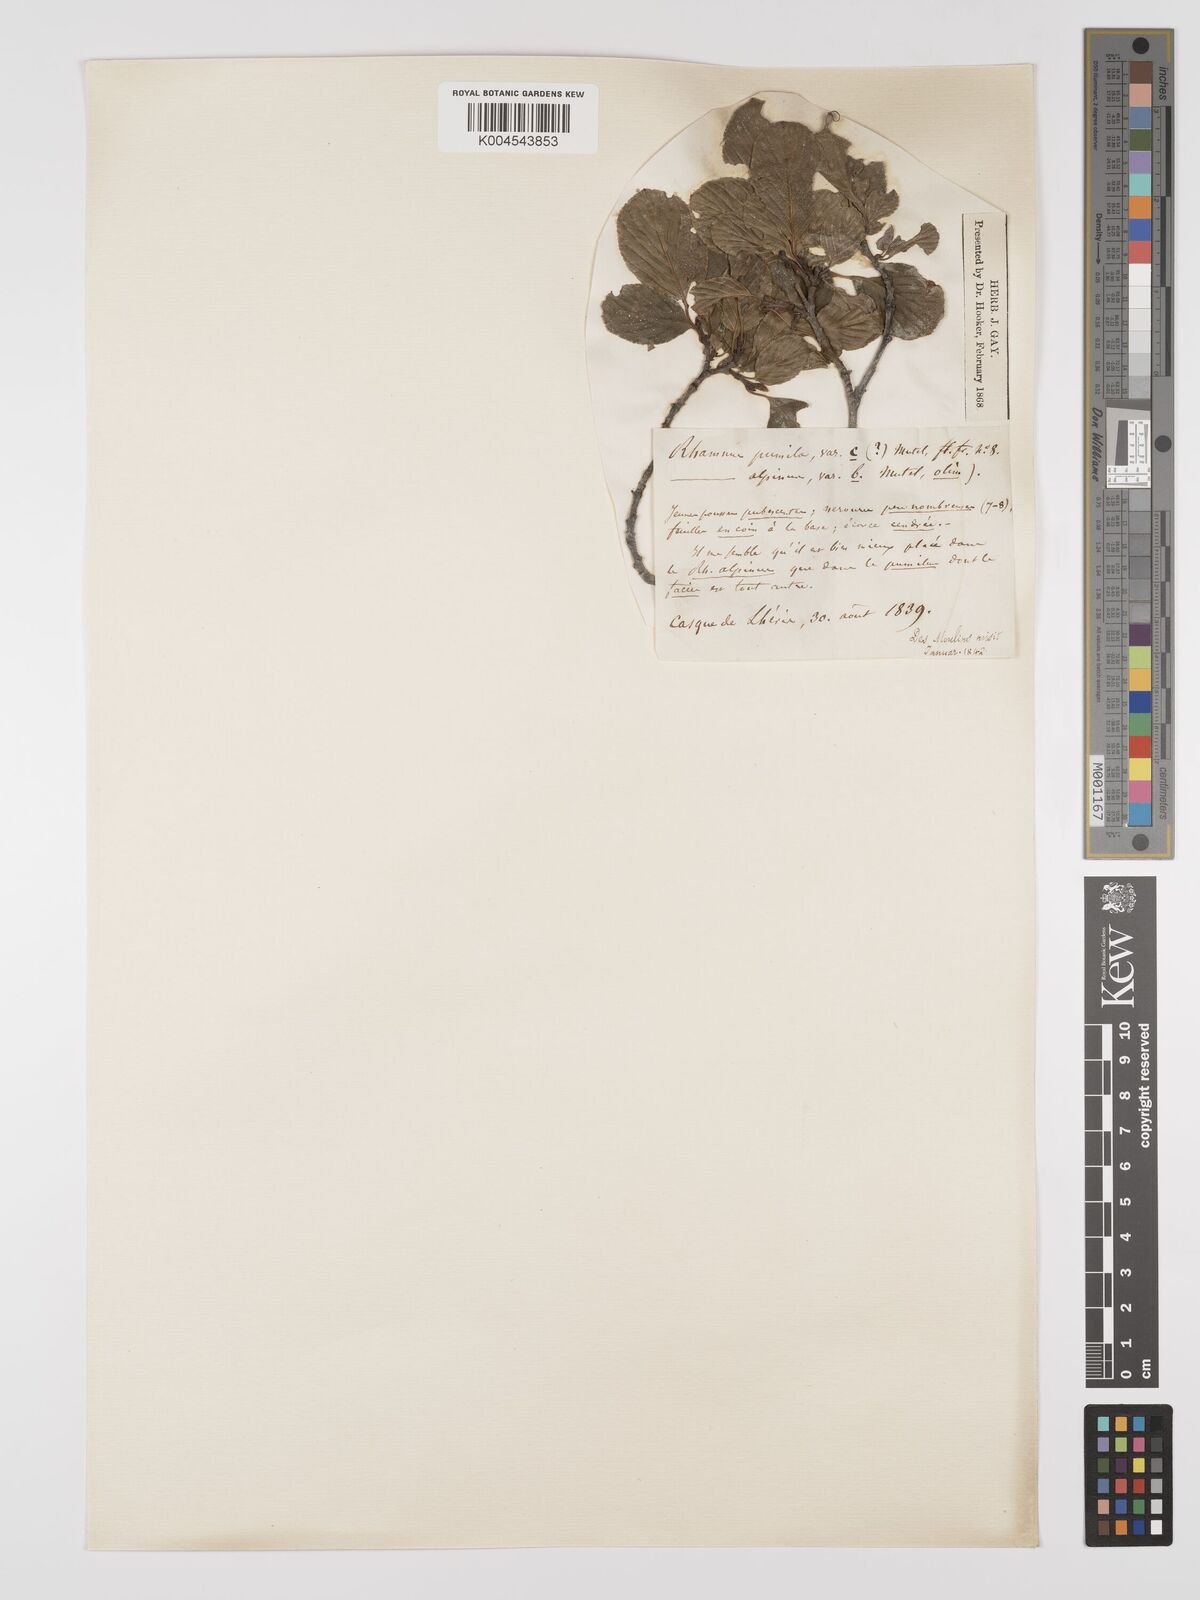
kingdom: Plantae
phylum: Tracheophyta
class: Magnoliopsida
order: Rosales
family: Rhamnaceae
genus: Rhamnus
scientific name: Rhamnus
